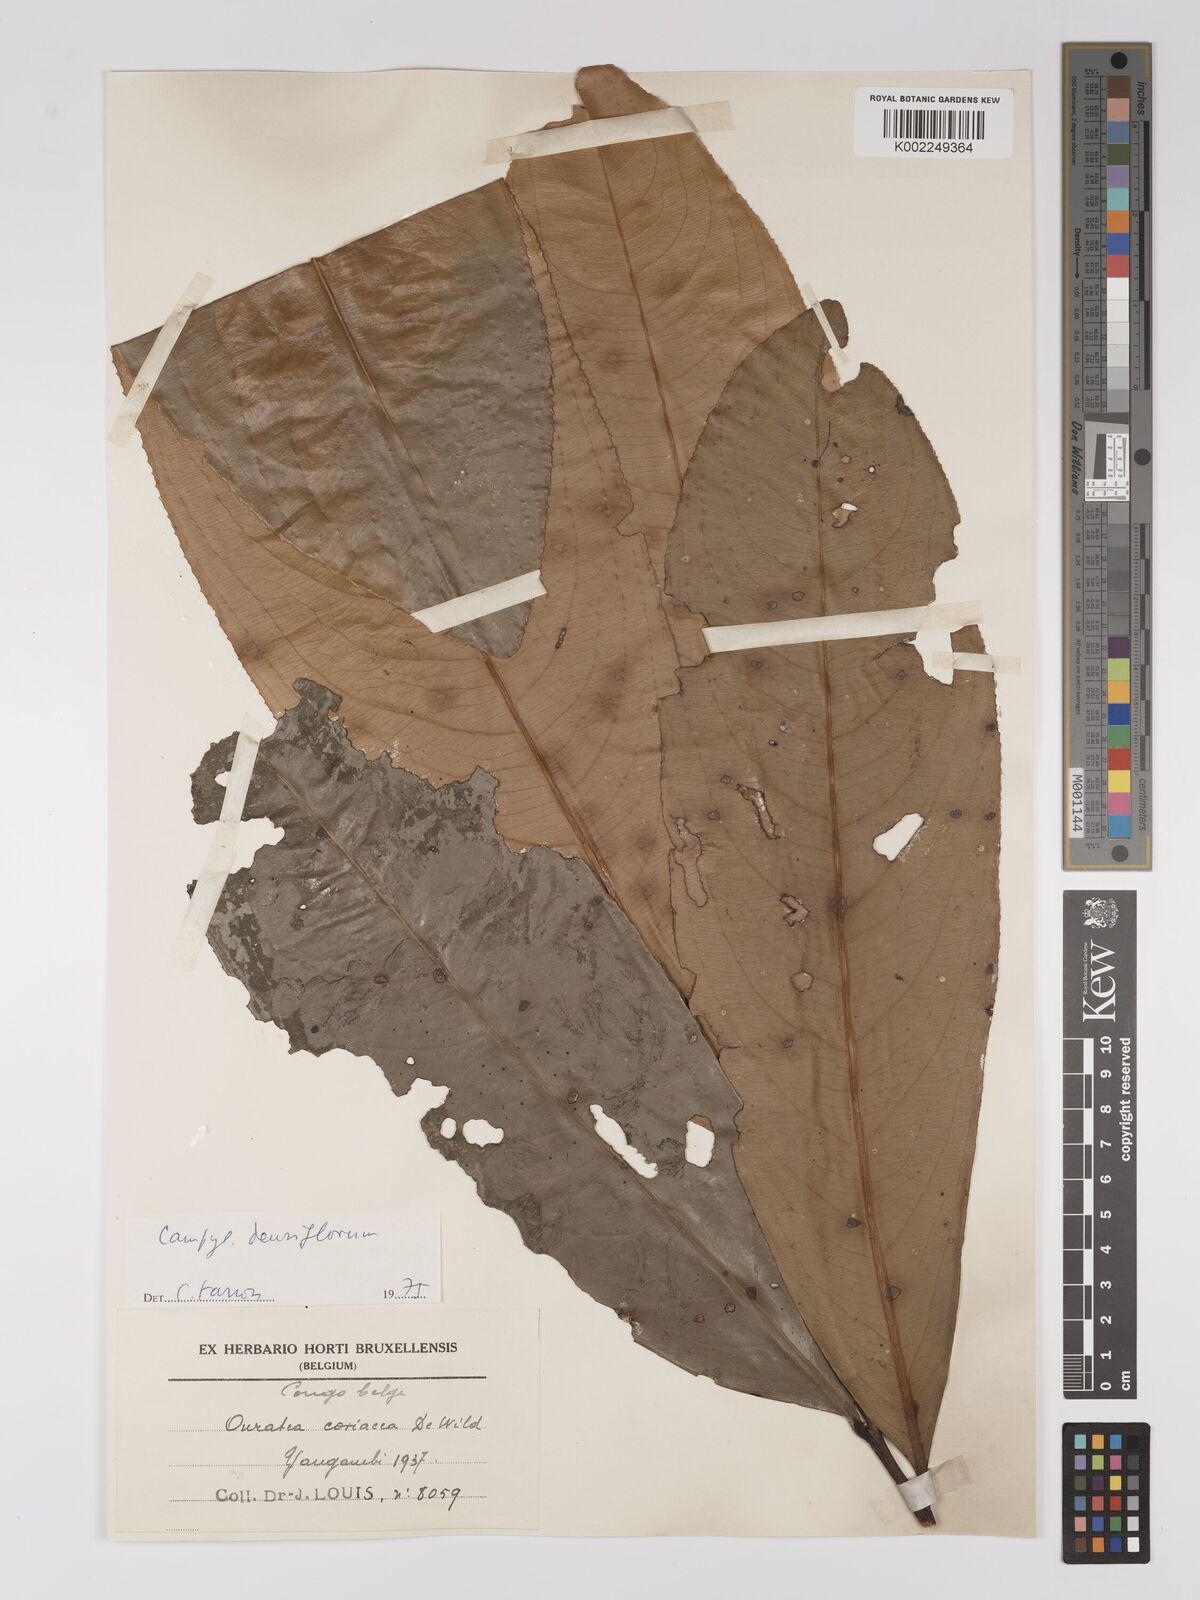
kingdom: Plantae
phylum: Tracheophyta
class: Magnoliopsida
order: Malpighiales
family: Ochnaceae
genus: Gomphia
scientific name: Gomphia densiflora
